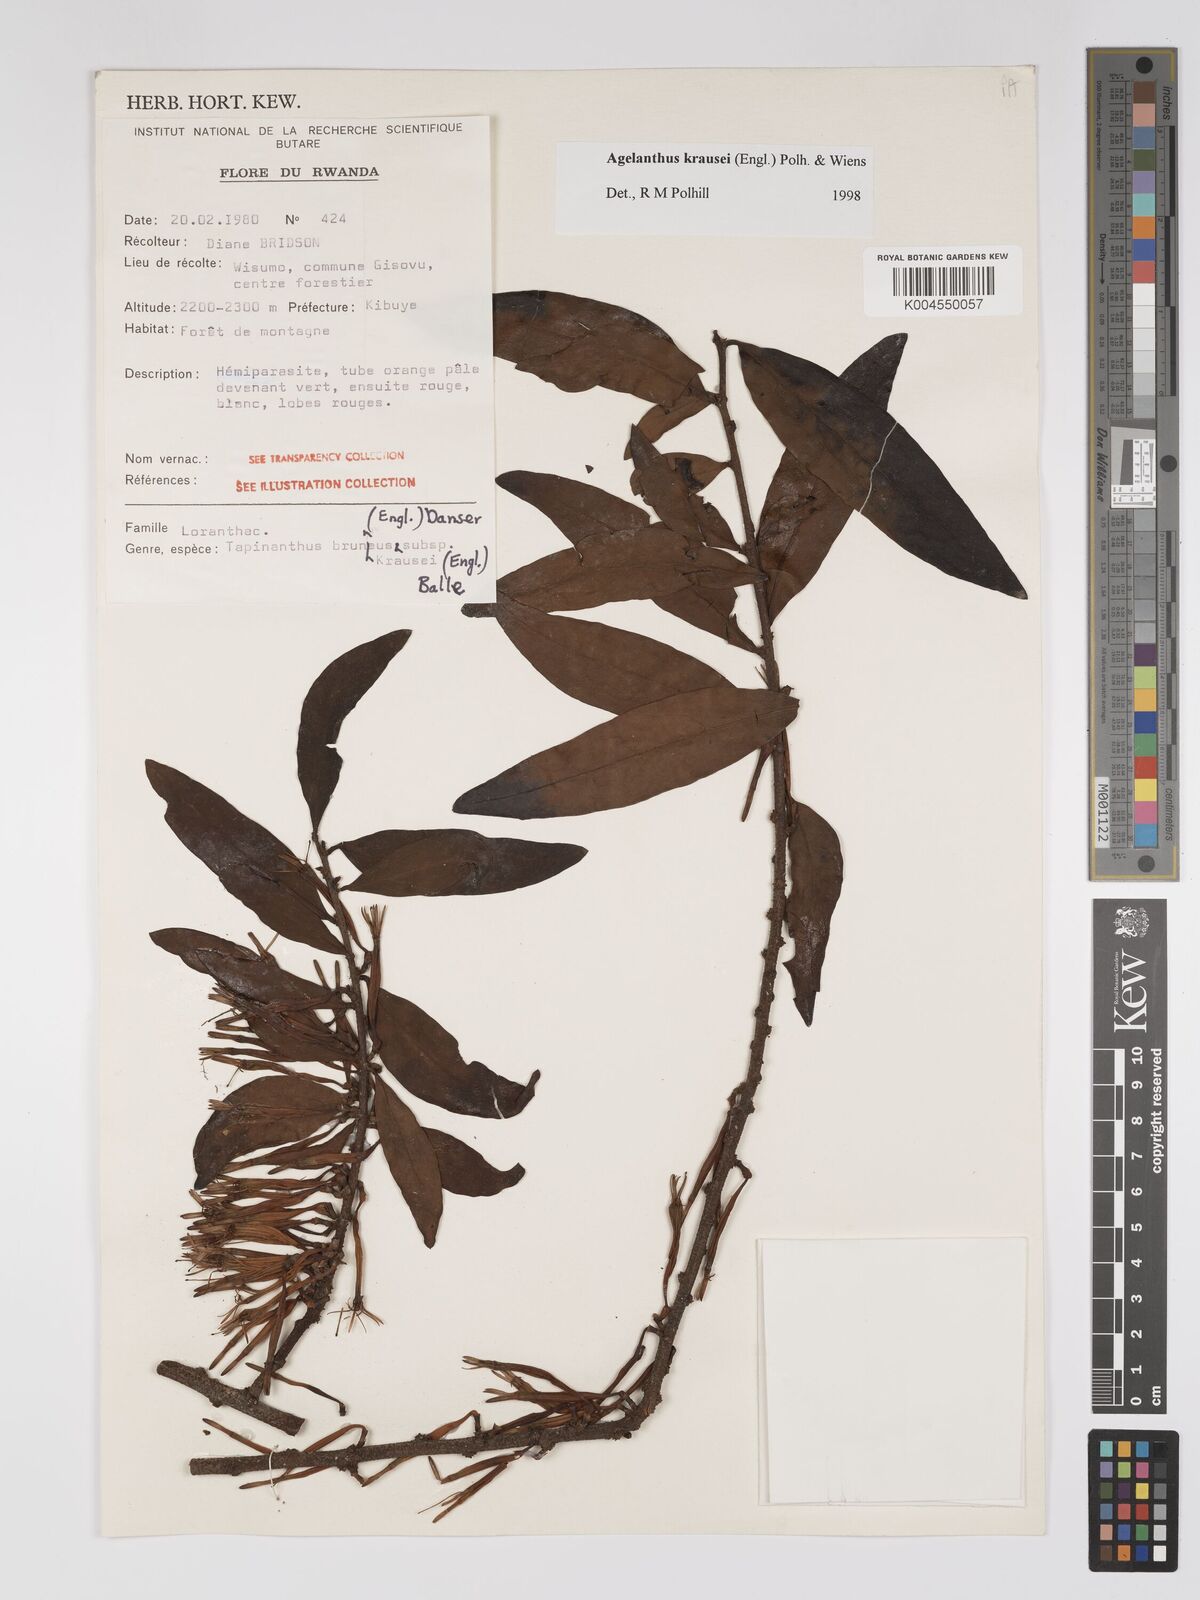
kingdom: Plantae
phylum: Tracheophyta
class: Magnoliopsida
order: Santalales
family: Loranthaceae
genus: Agelanthus
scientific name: Agelanthus krausei
